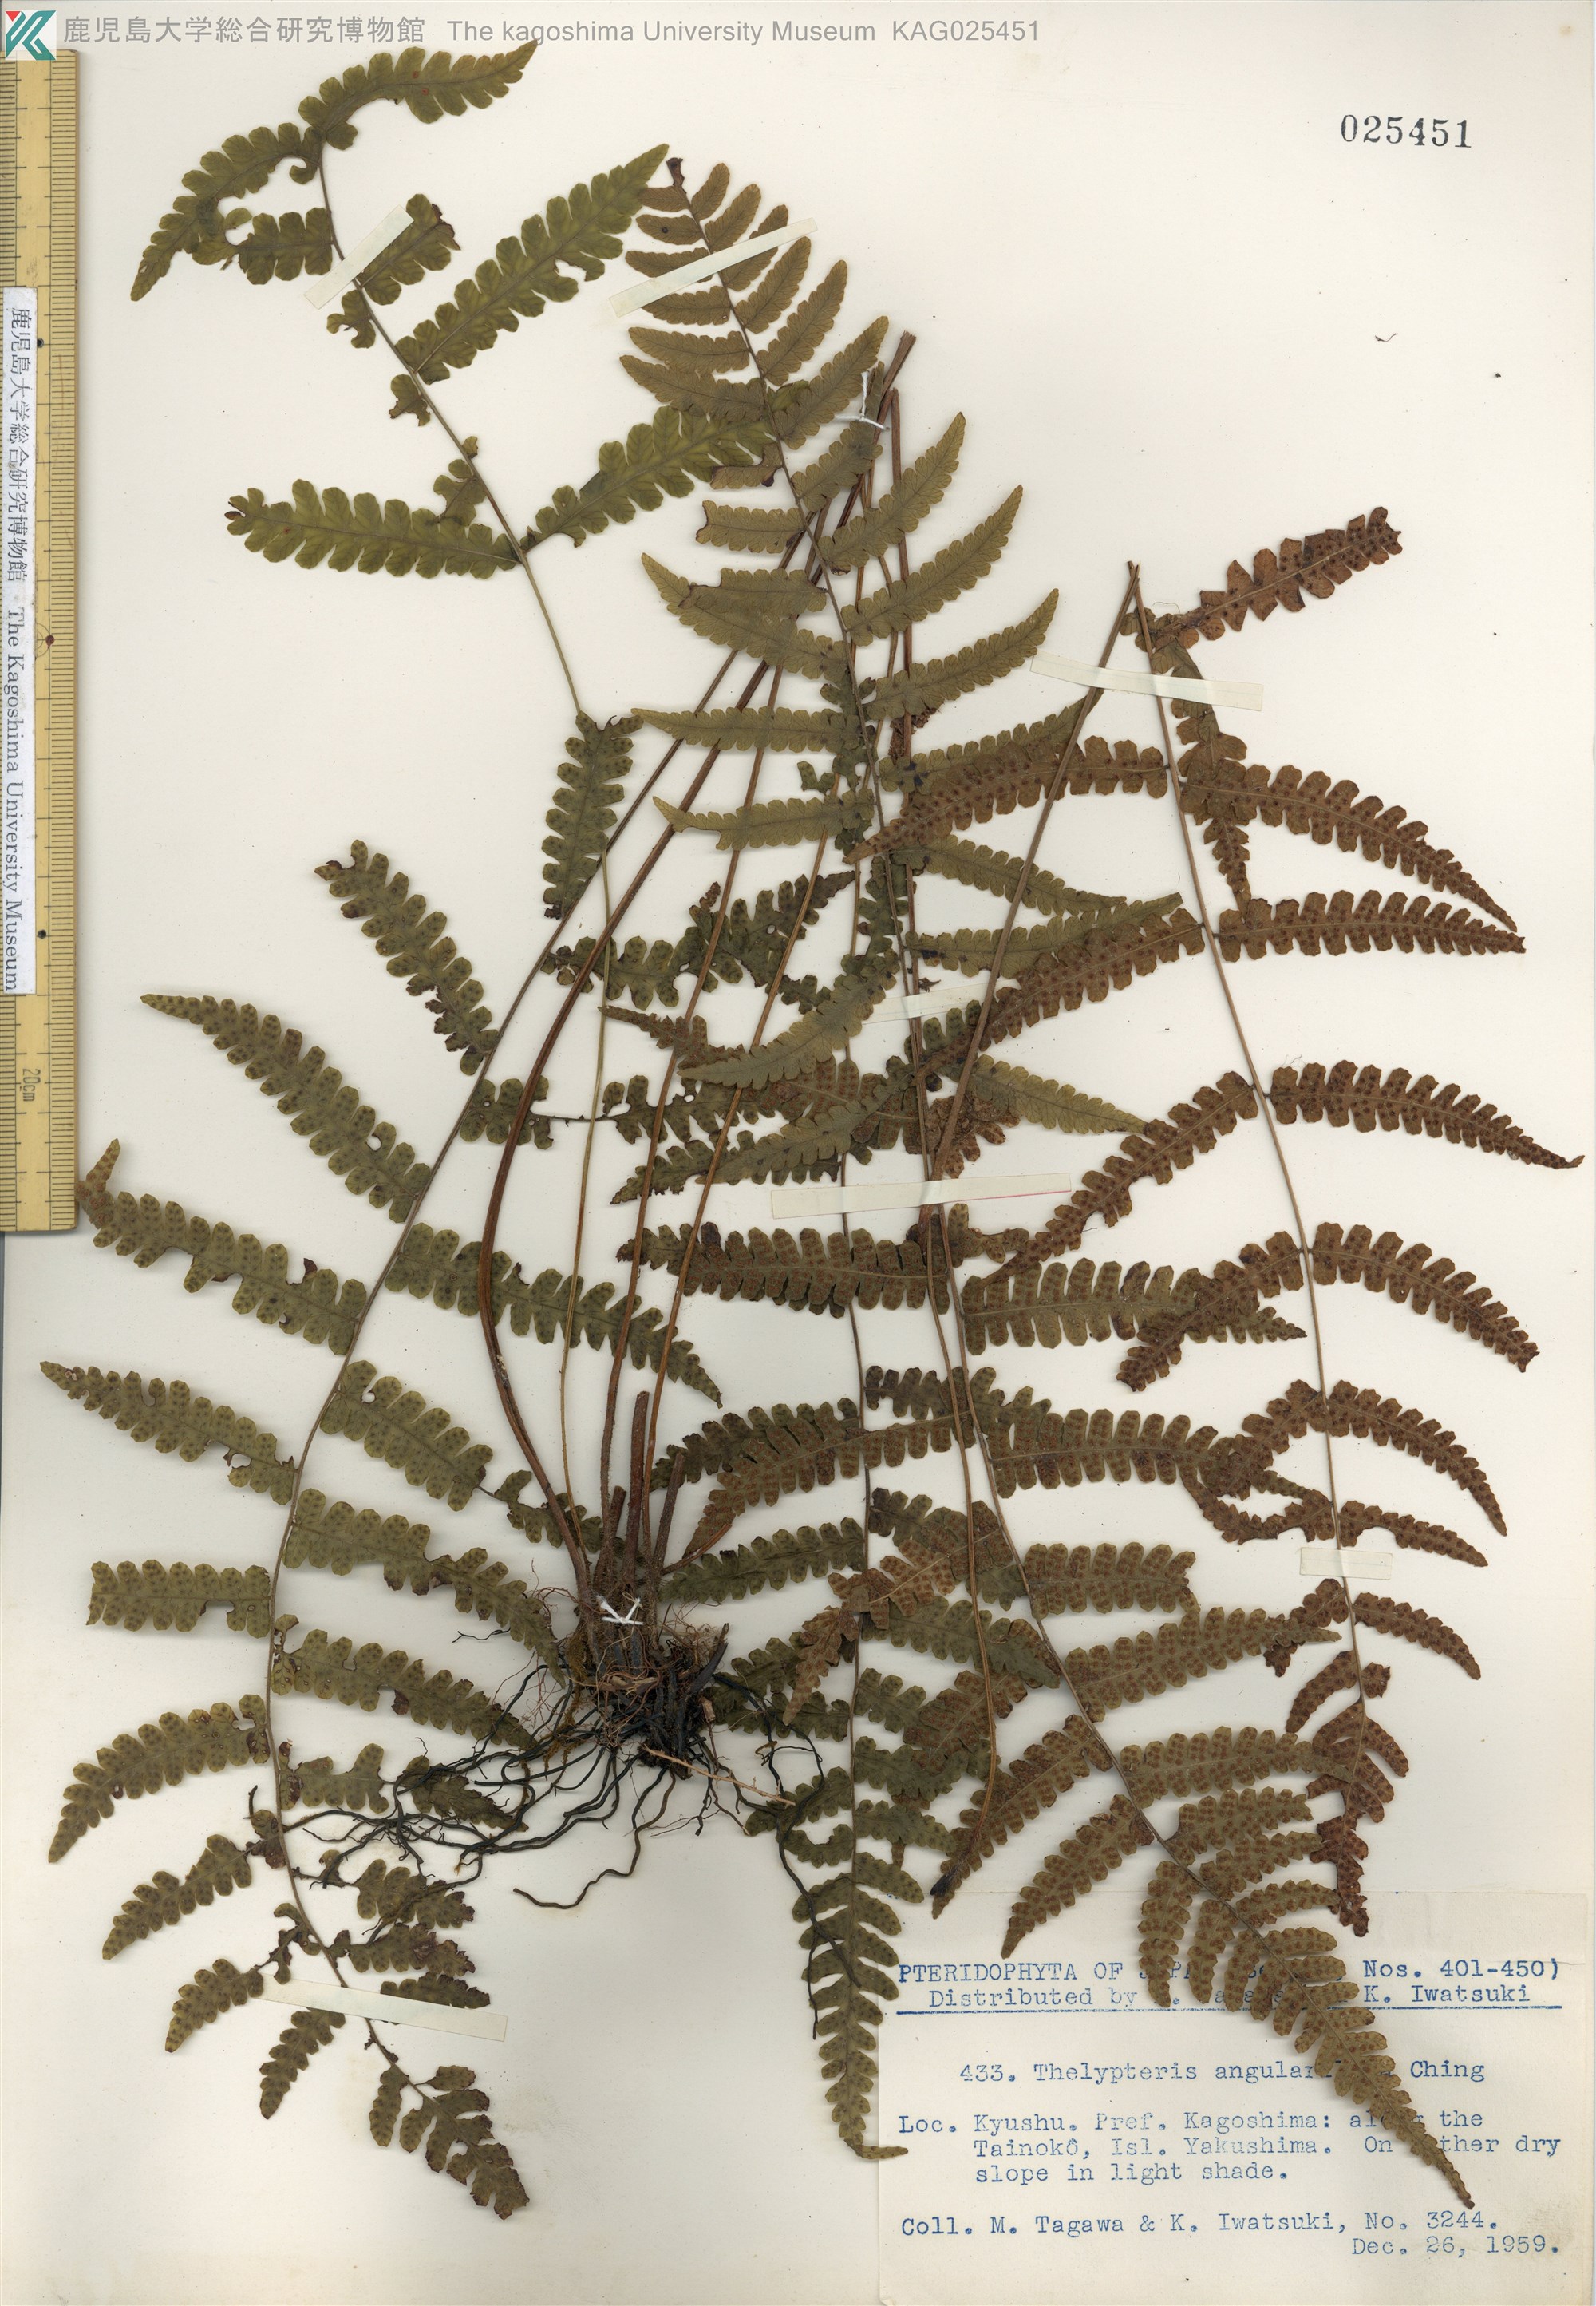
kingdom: Plantae
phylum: Tracheophyta
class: Polypodiopsida
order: Polypodiales
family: Thelypteridaceae
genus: Coryphopteris
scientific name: Coryphopteris hirsutipes
